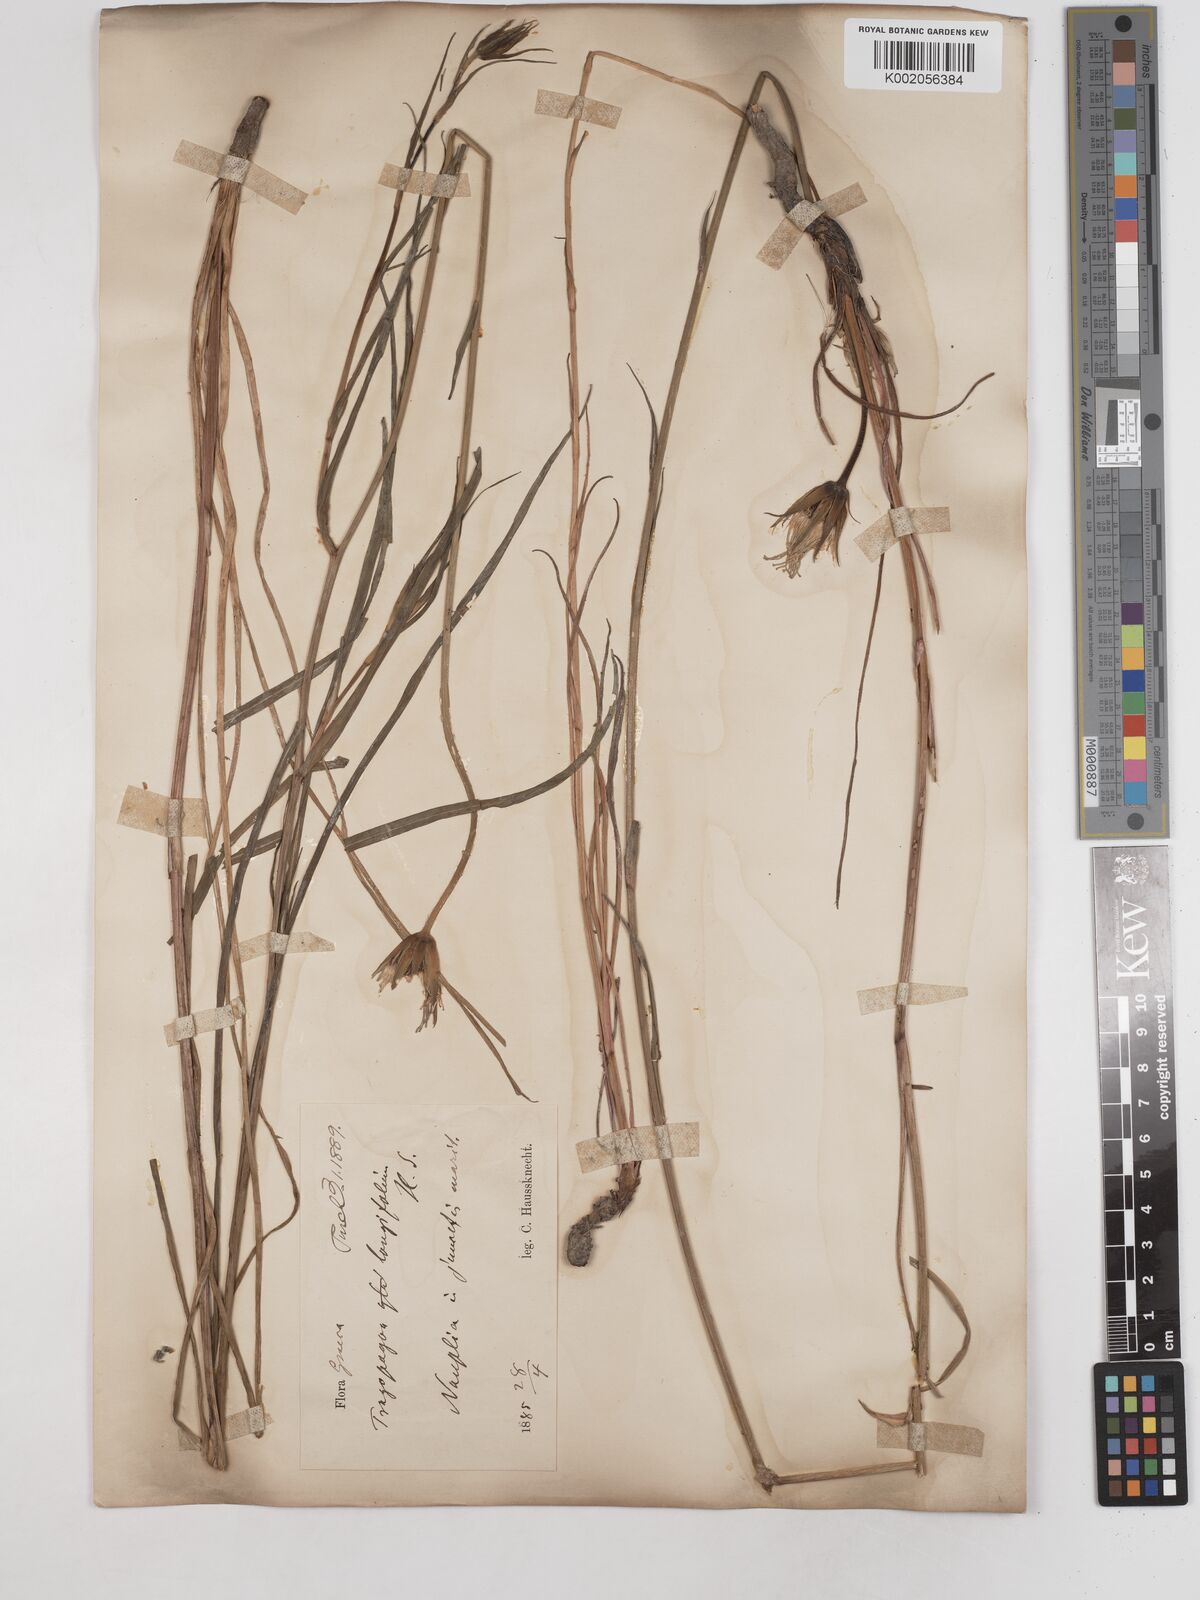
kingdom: Plantae
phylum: Tracheophyta
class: Magnoliopsida
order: Asterales
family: Asteraceae
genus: Tragopogon
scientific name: Tragopogon longifolius
